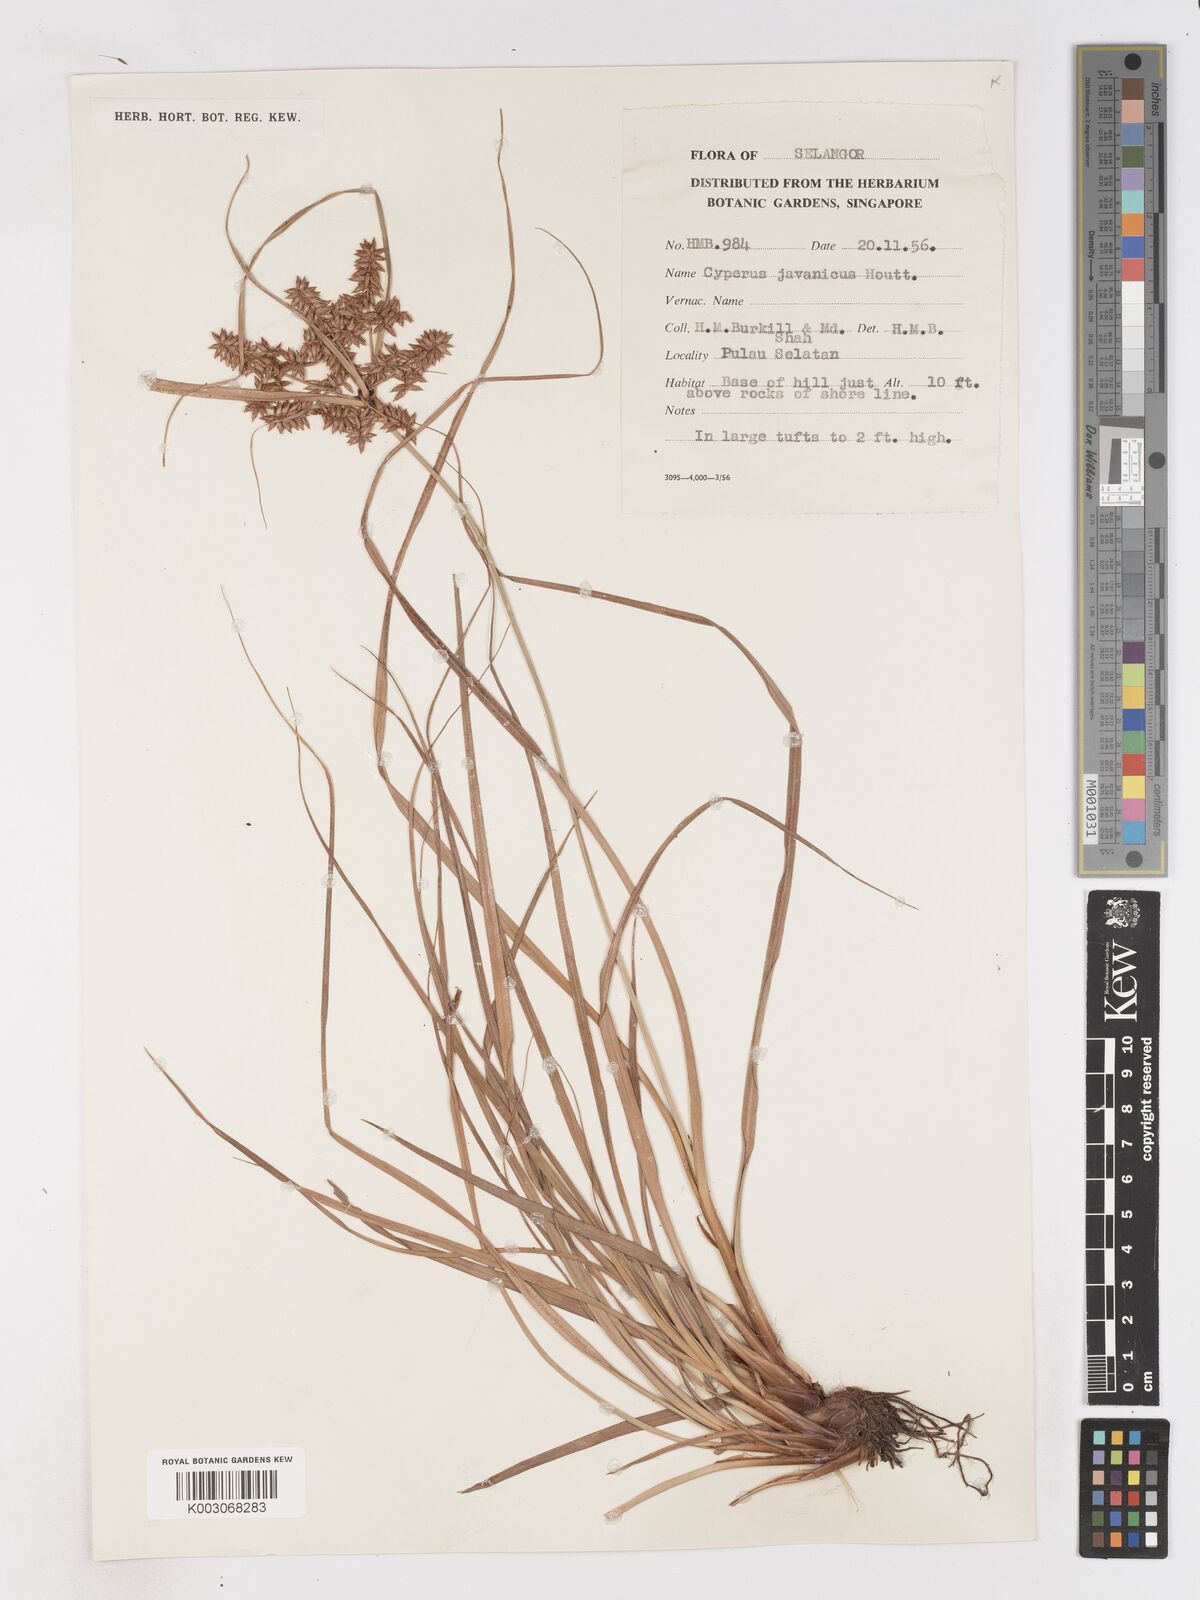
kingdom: Plantae
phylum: Tracheophyta
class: Liliopsida
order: Poales
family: Cyperaceae
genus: Cyperus
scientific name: Cyperus javanicus
